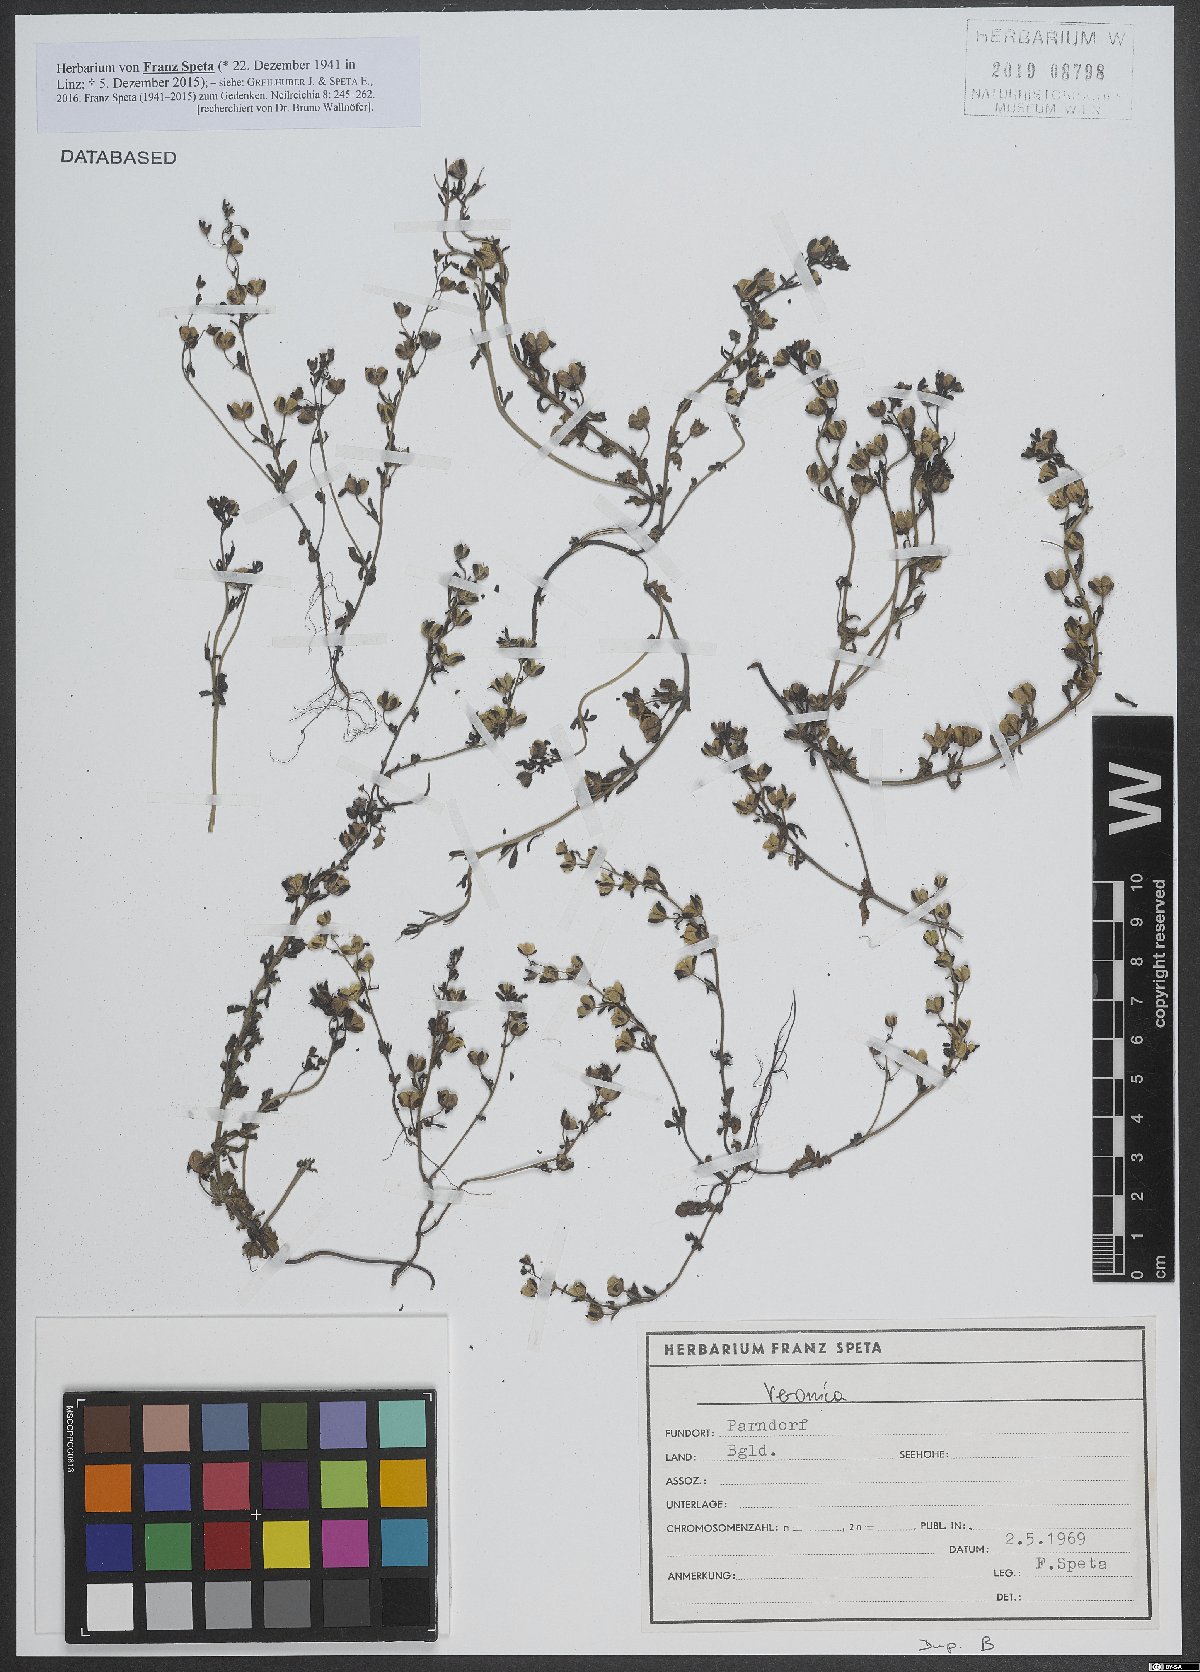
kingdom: Plantae
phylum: Tracheophyta
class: Magnoliopsida
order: Lamiales
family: Plantaginaceae
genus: Veronica
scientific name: Veronica
